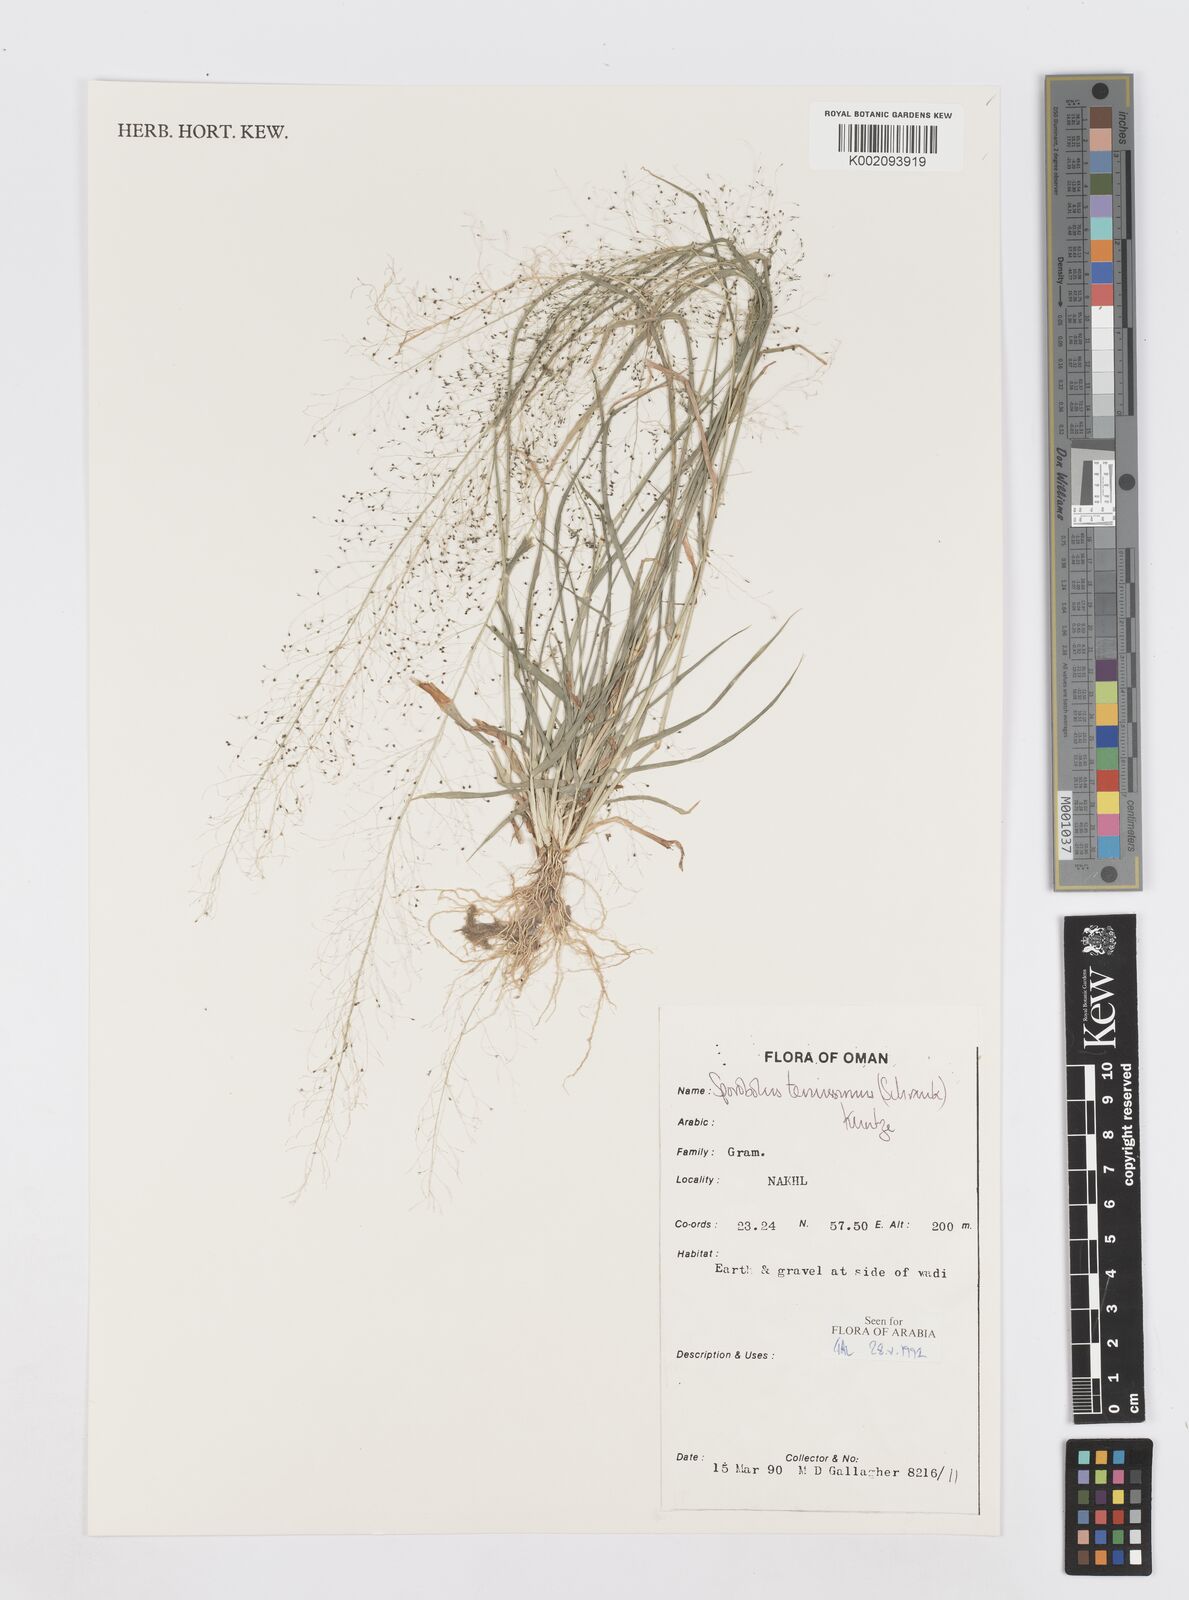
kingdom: Plantae
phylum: Tracheophyta
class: Liliopsida
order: Poales
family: Poaceae
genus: Sporobolus
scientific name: Sporobolus tenuissimus
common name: Tropical dropseed
